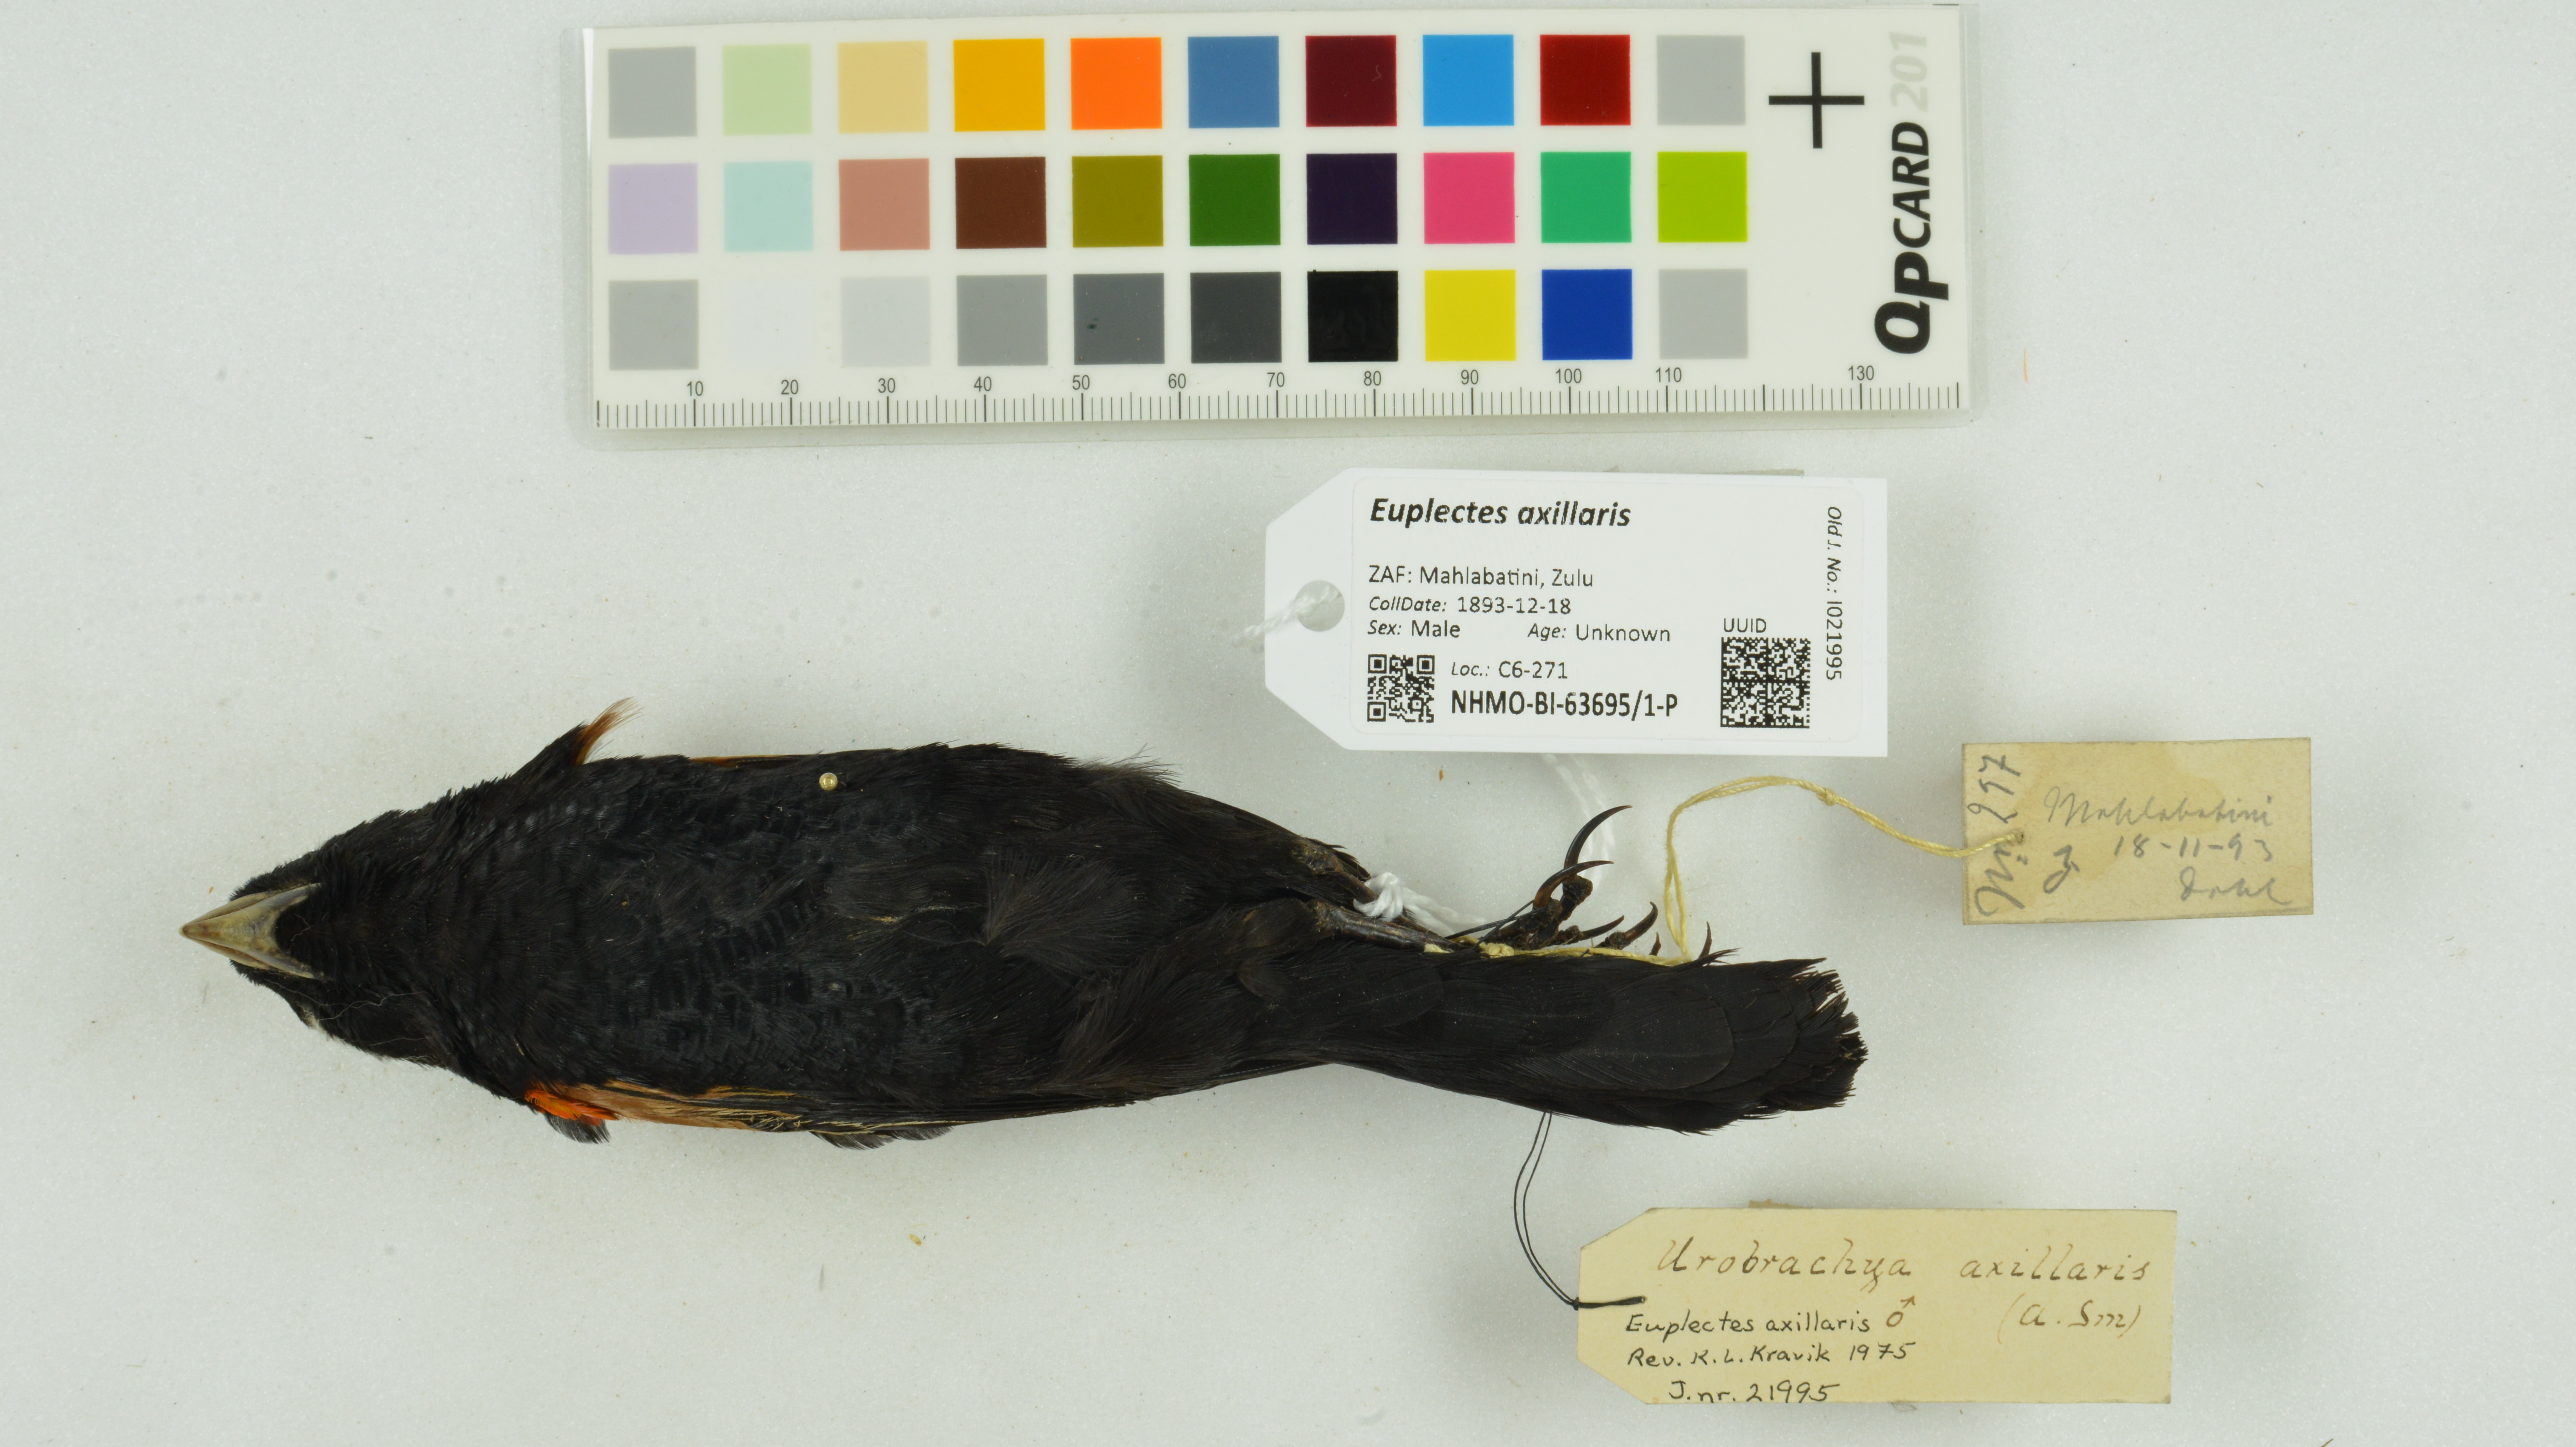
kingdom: Animalia
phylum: Chordata
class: Aves
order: Passeriformes
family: Ploceidae
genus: Euplectes
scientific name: Euplectes axillaris
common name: Fan-tailed widowbird
